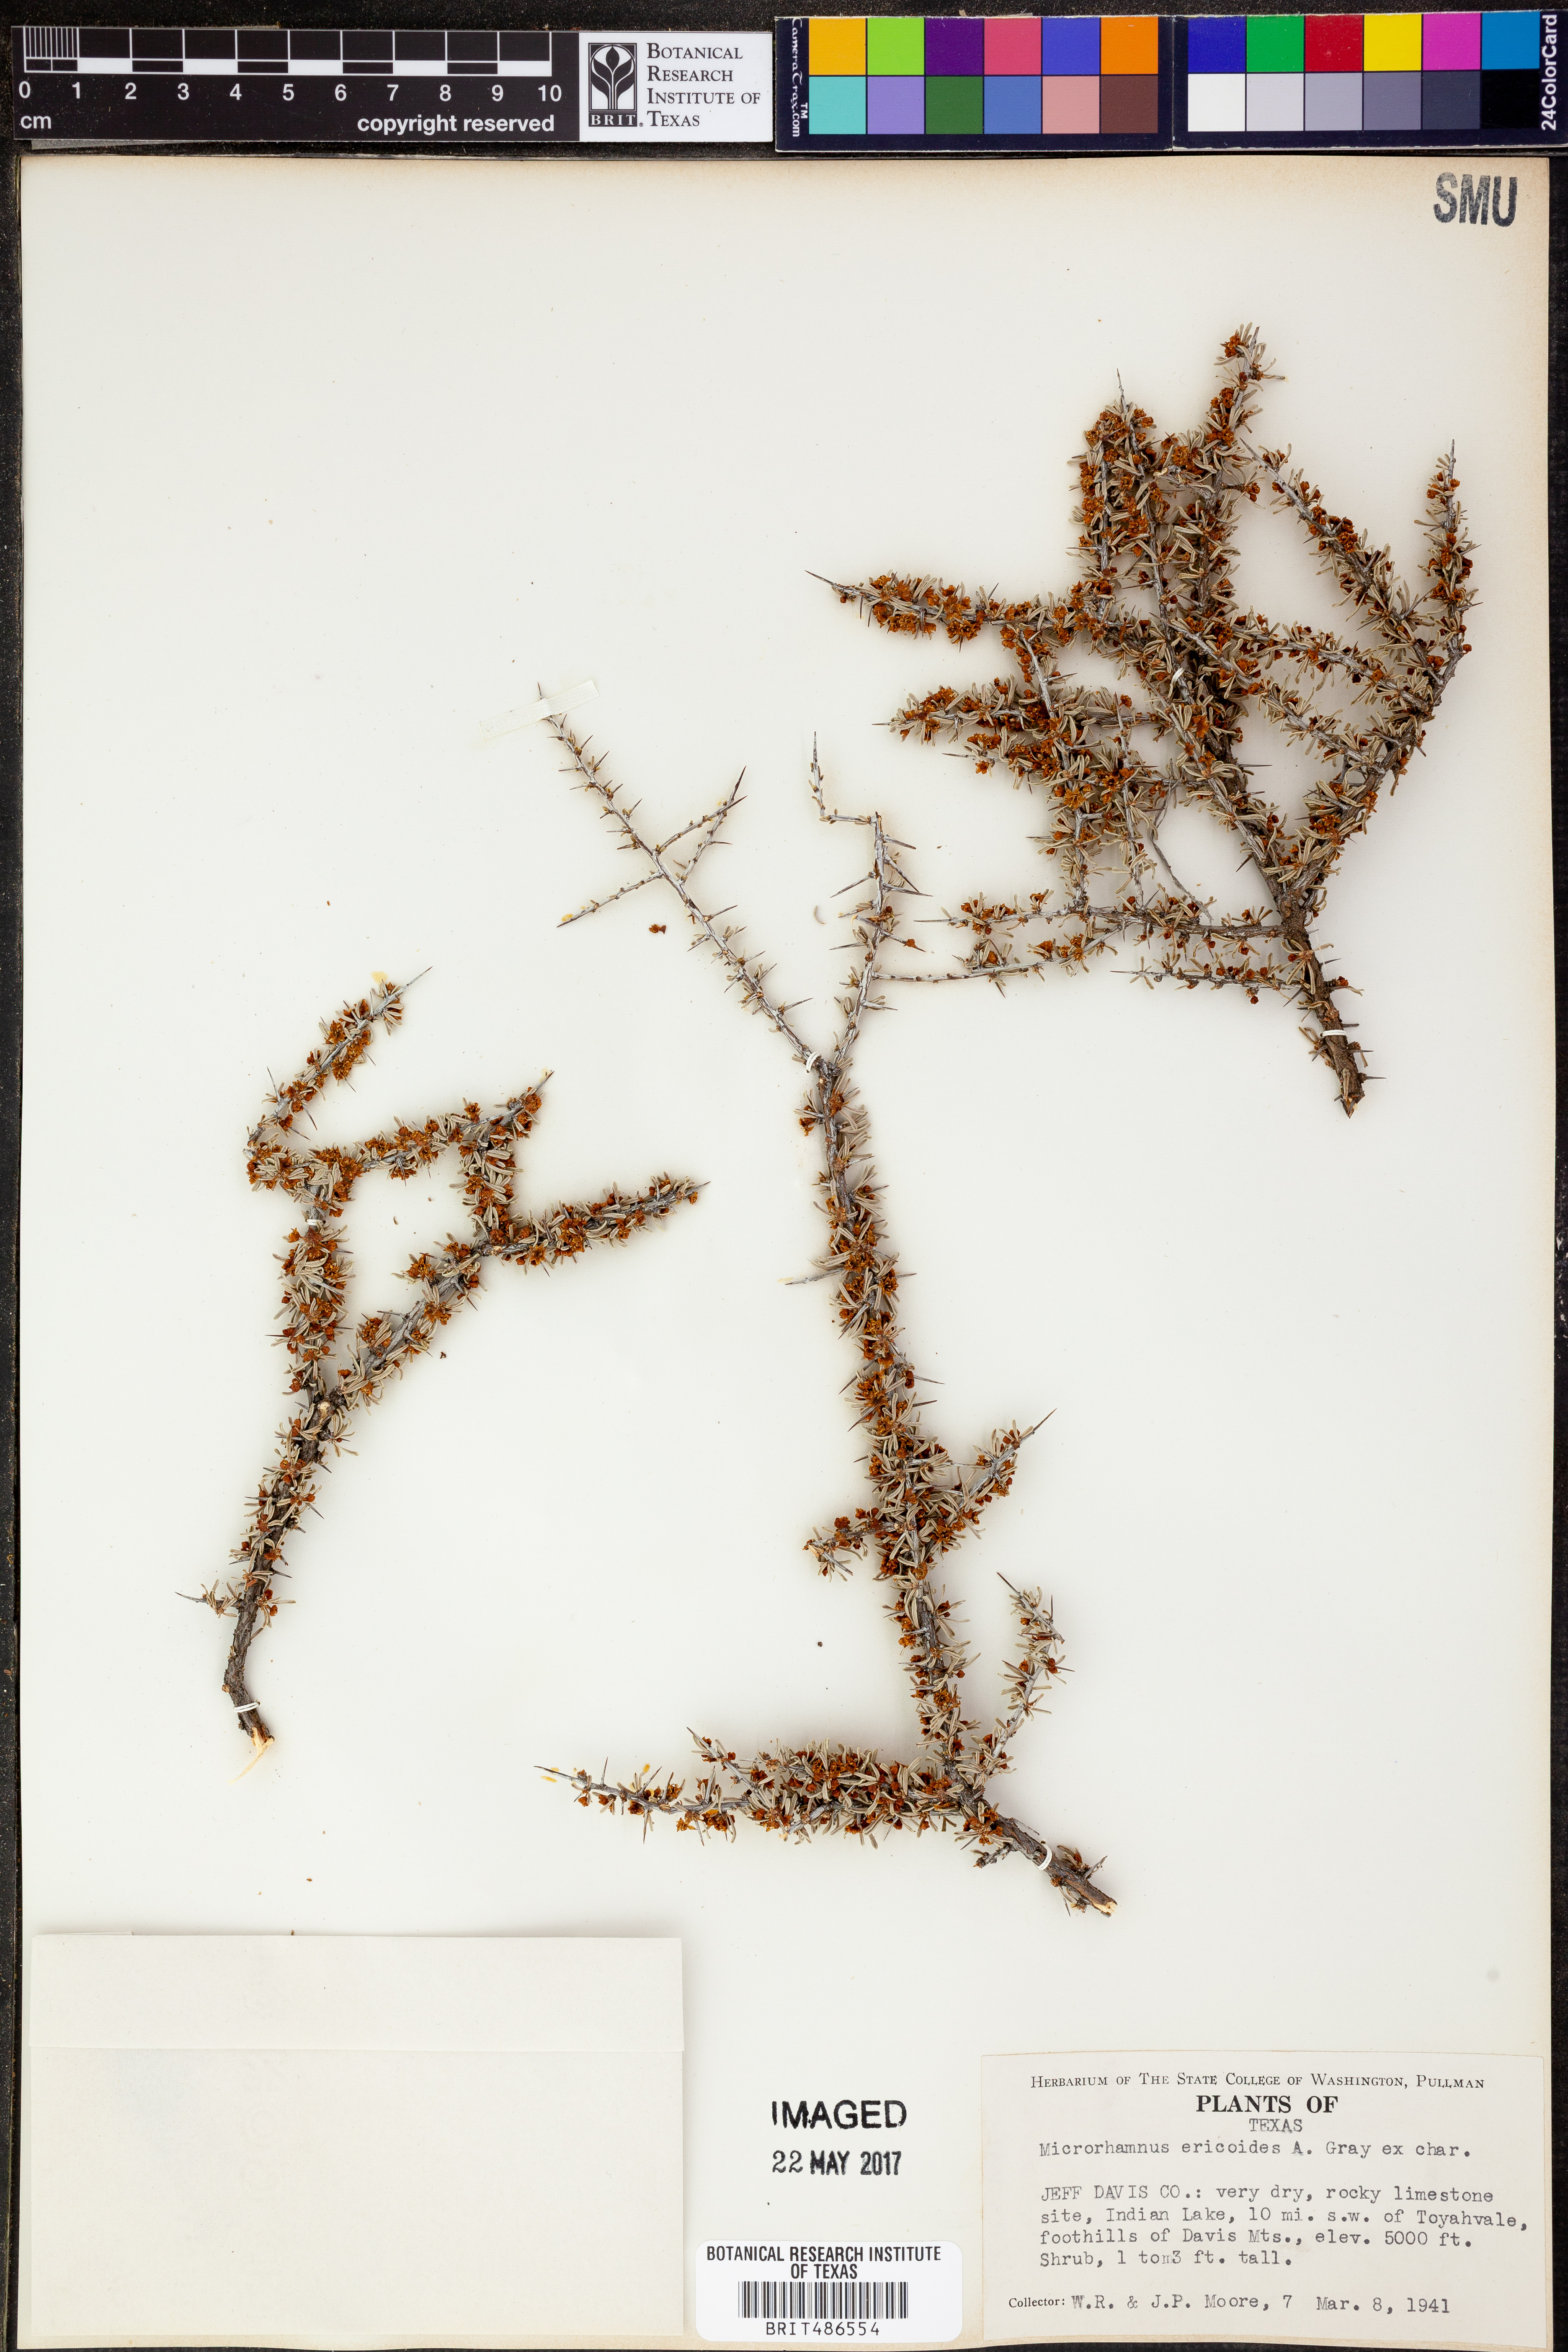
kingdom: Plantae
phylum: Tracheophyta
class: Magnoliopsida
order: Rosales
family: Rhamnaceae
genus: Condalia
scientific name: Condalia ericoides
